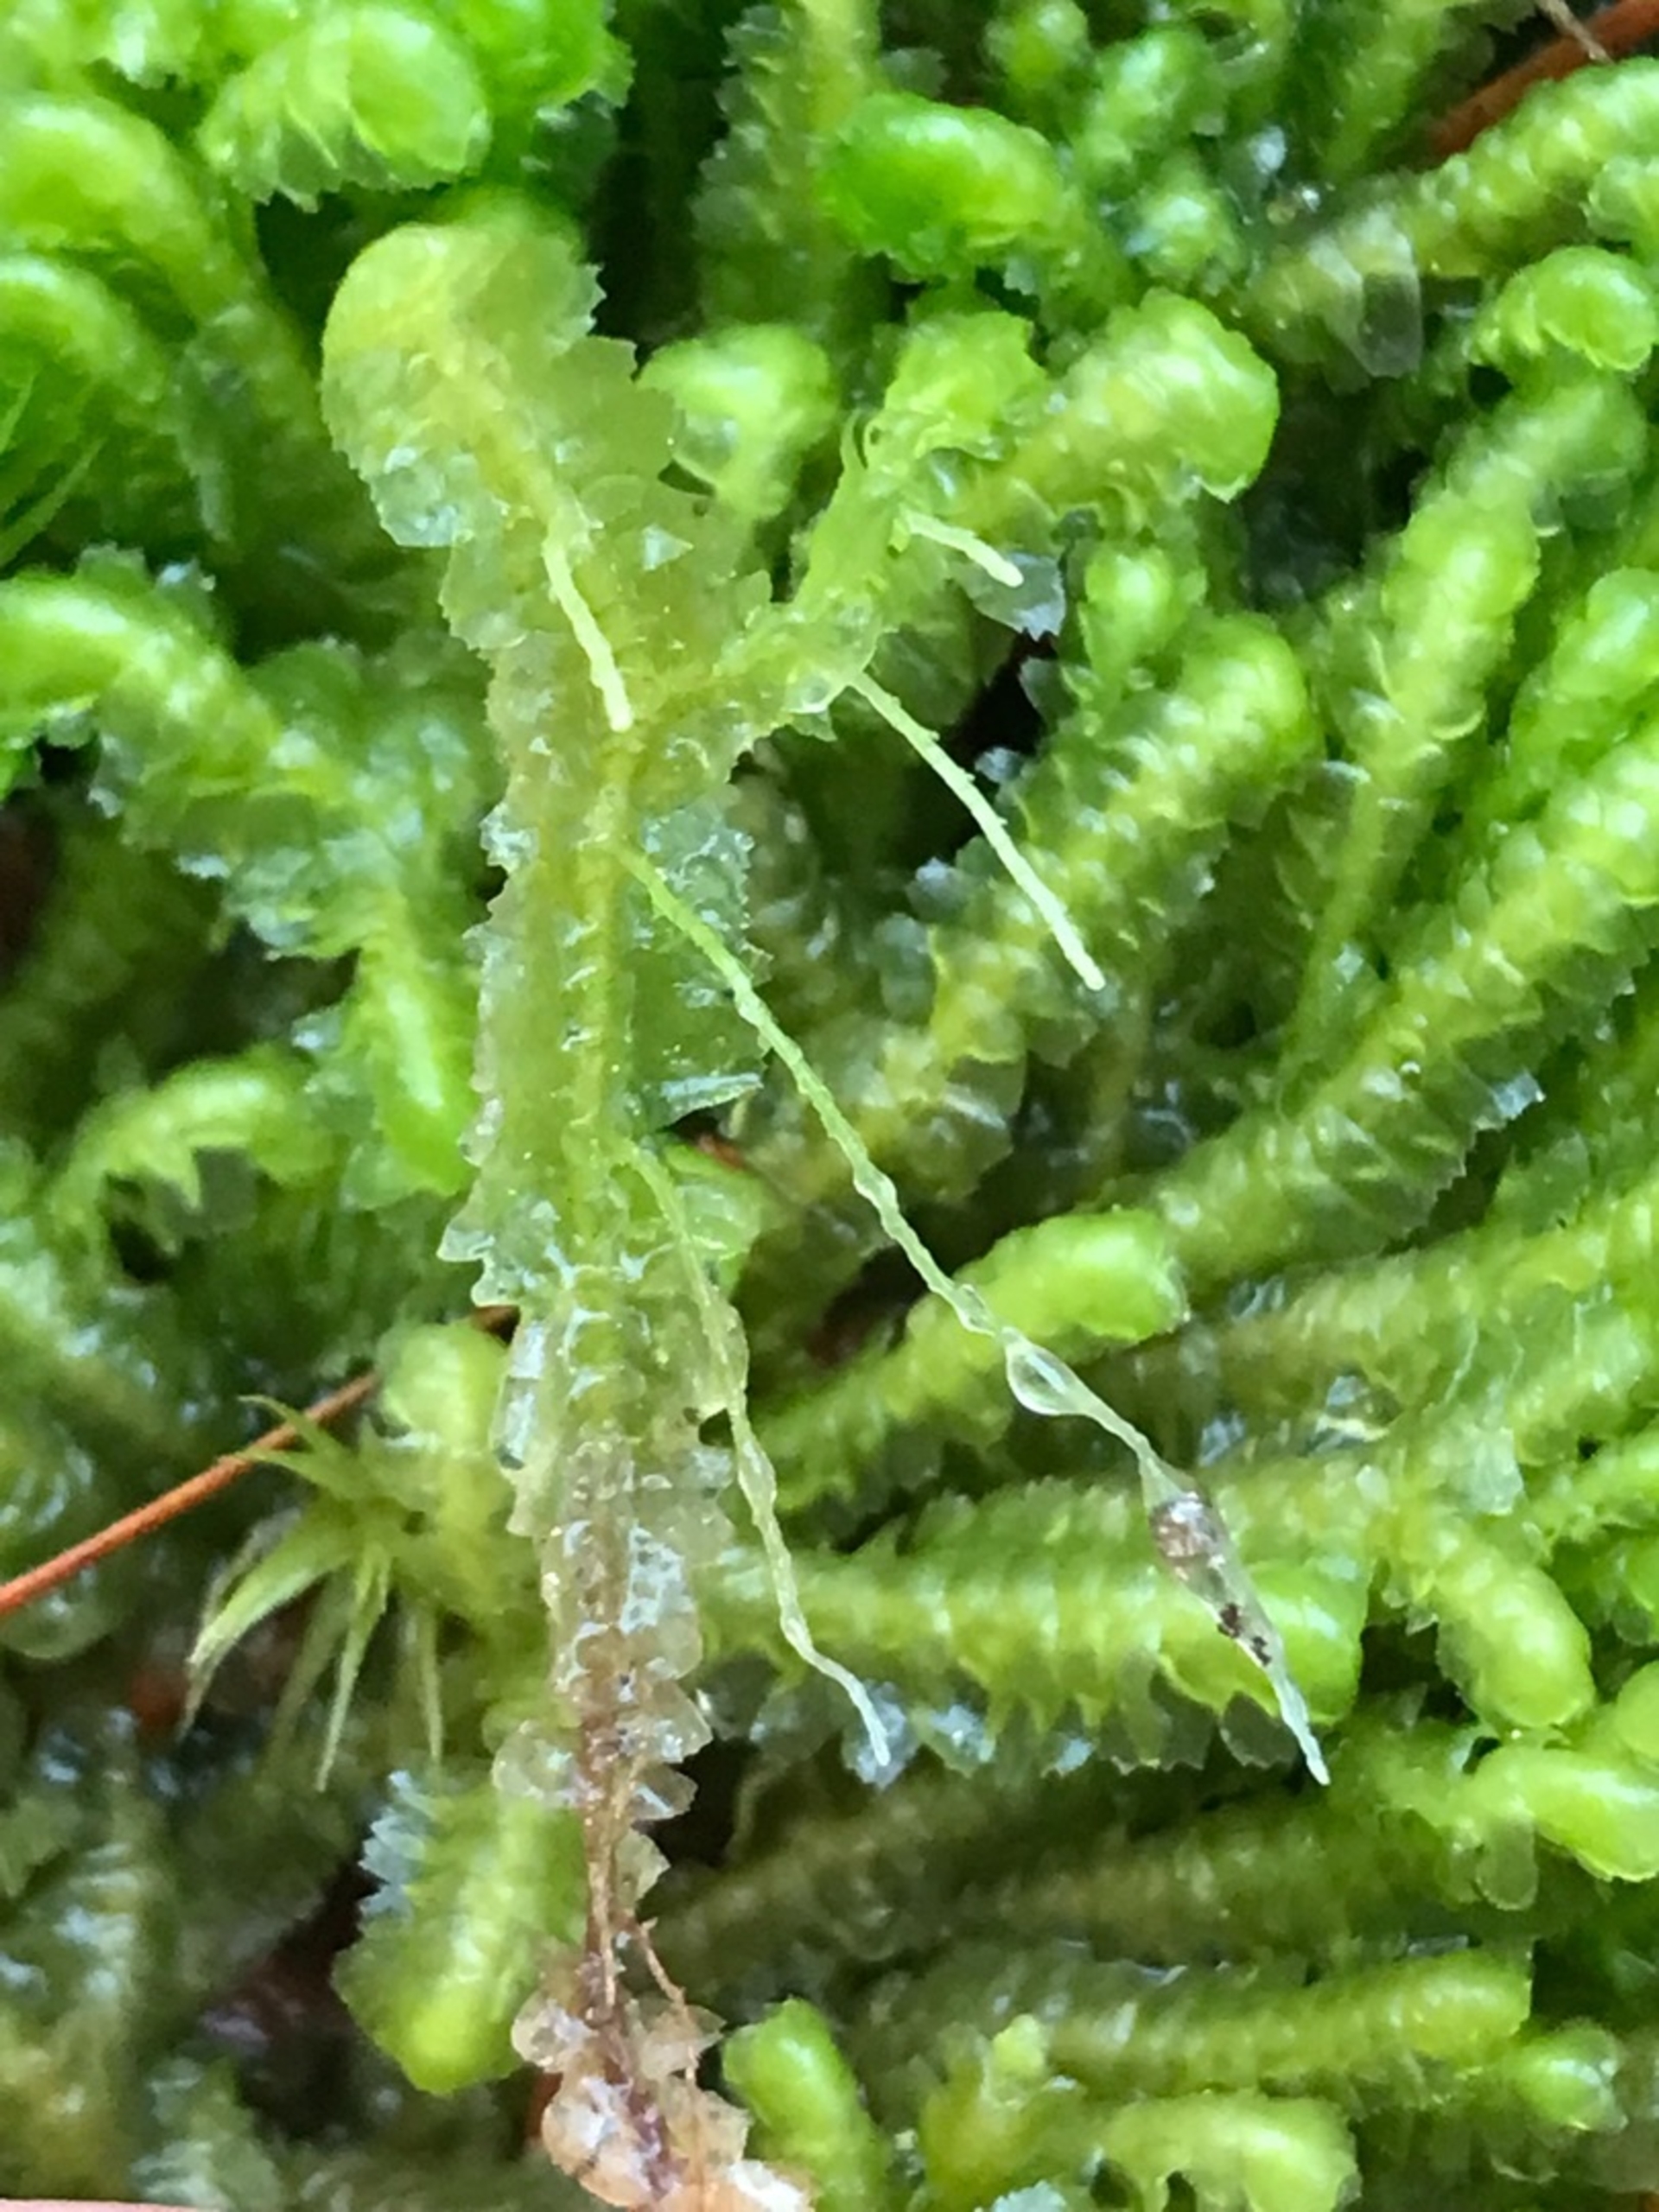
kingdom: Plantae
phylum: Marchantiophyta
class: Jungermanniopsida
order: Jungermanniales
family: Lepidoziaceae
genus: Bazzania
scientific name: Bazzania trilobata
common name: Stor styltemos
